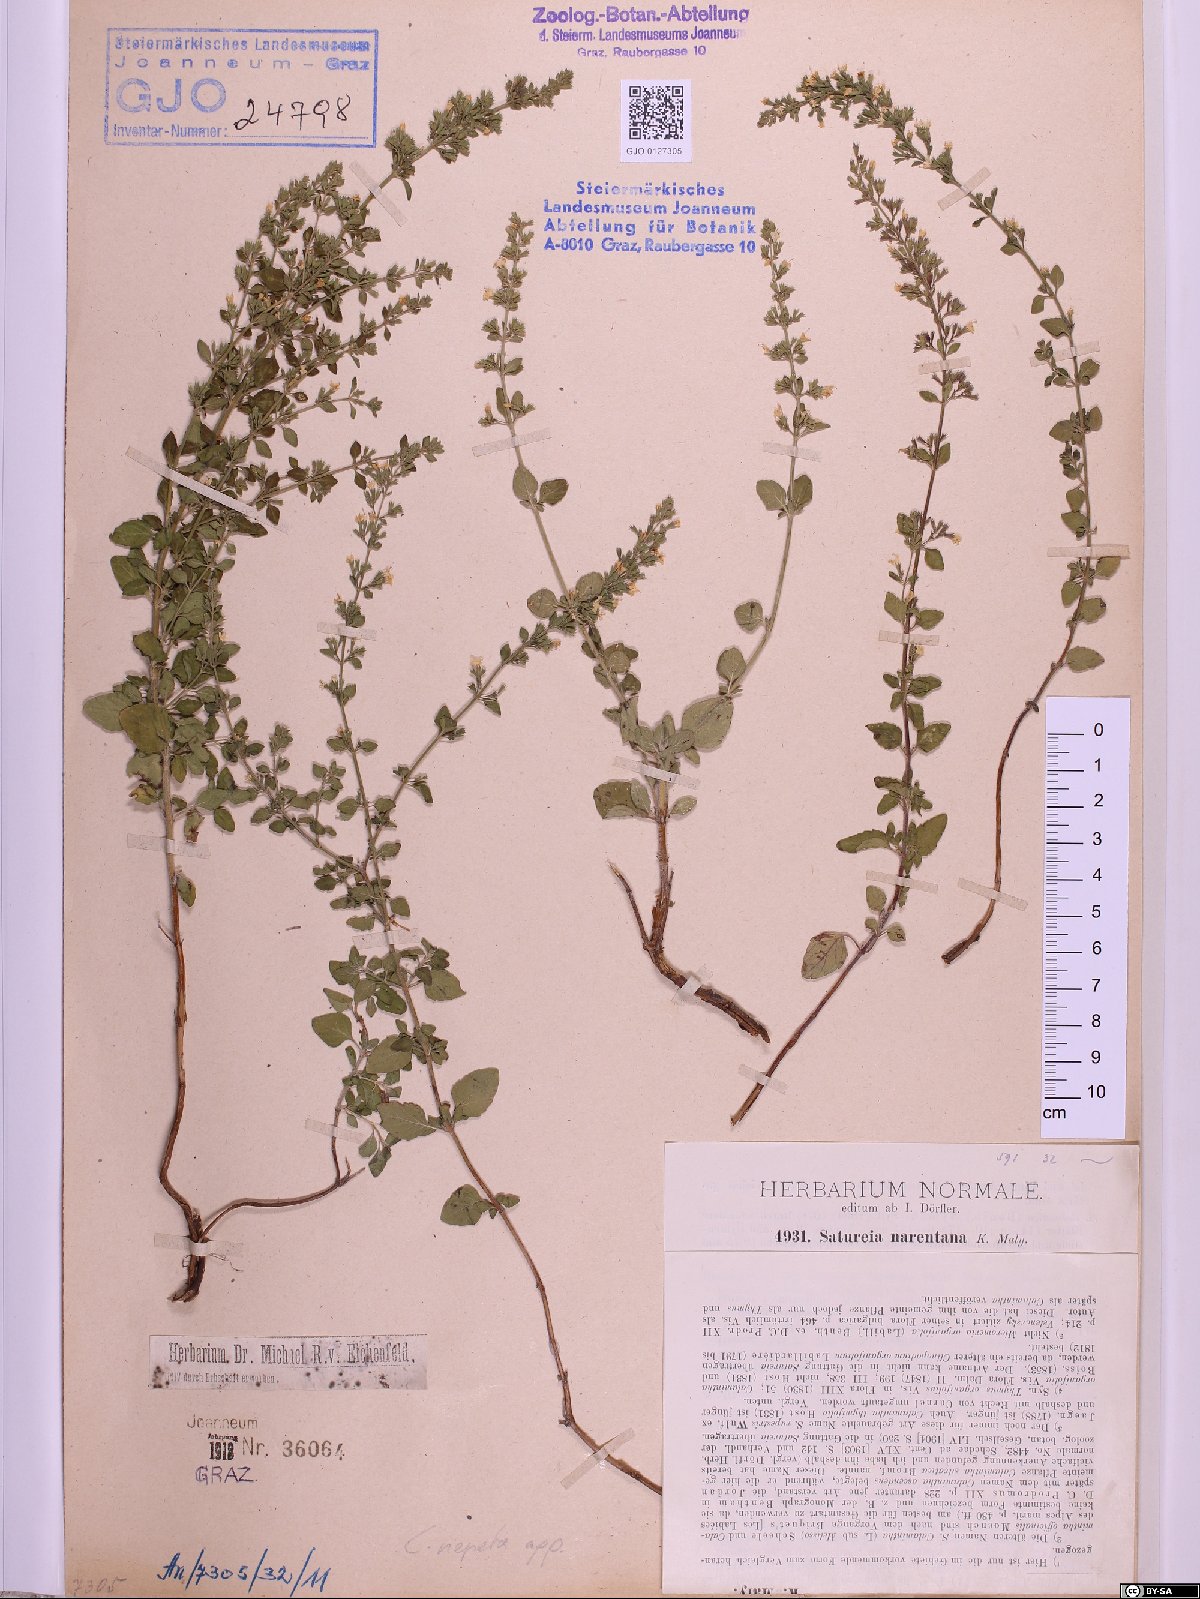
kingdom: Plantae
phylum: Tracheophyta
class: Magnoliopsida
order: Lamiales
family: Lamiaceae
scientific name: Lamiaceae
